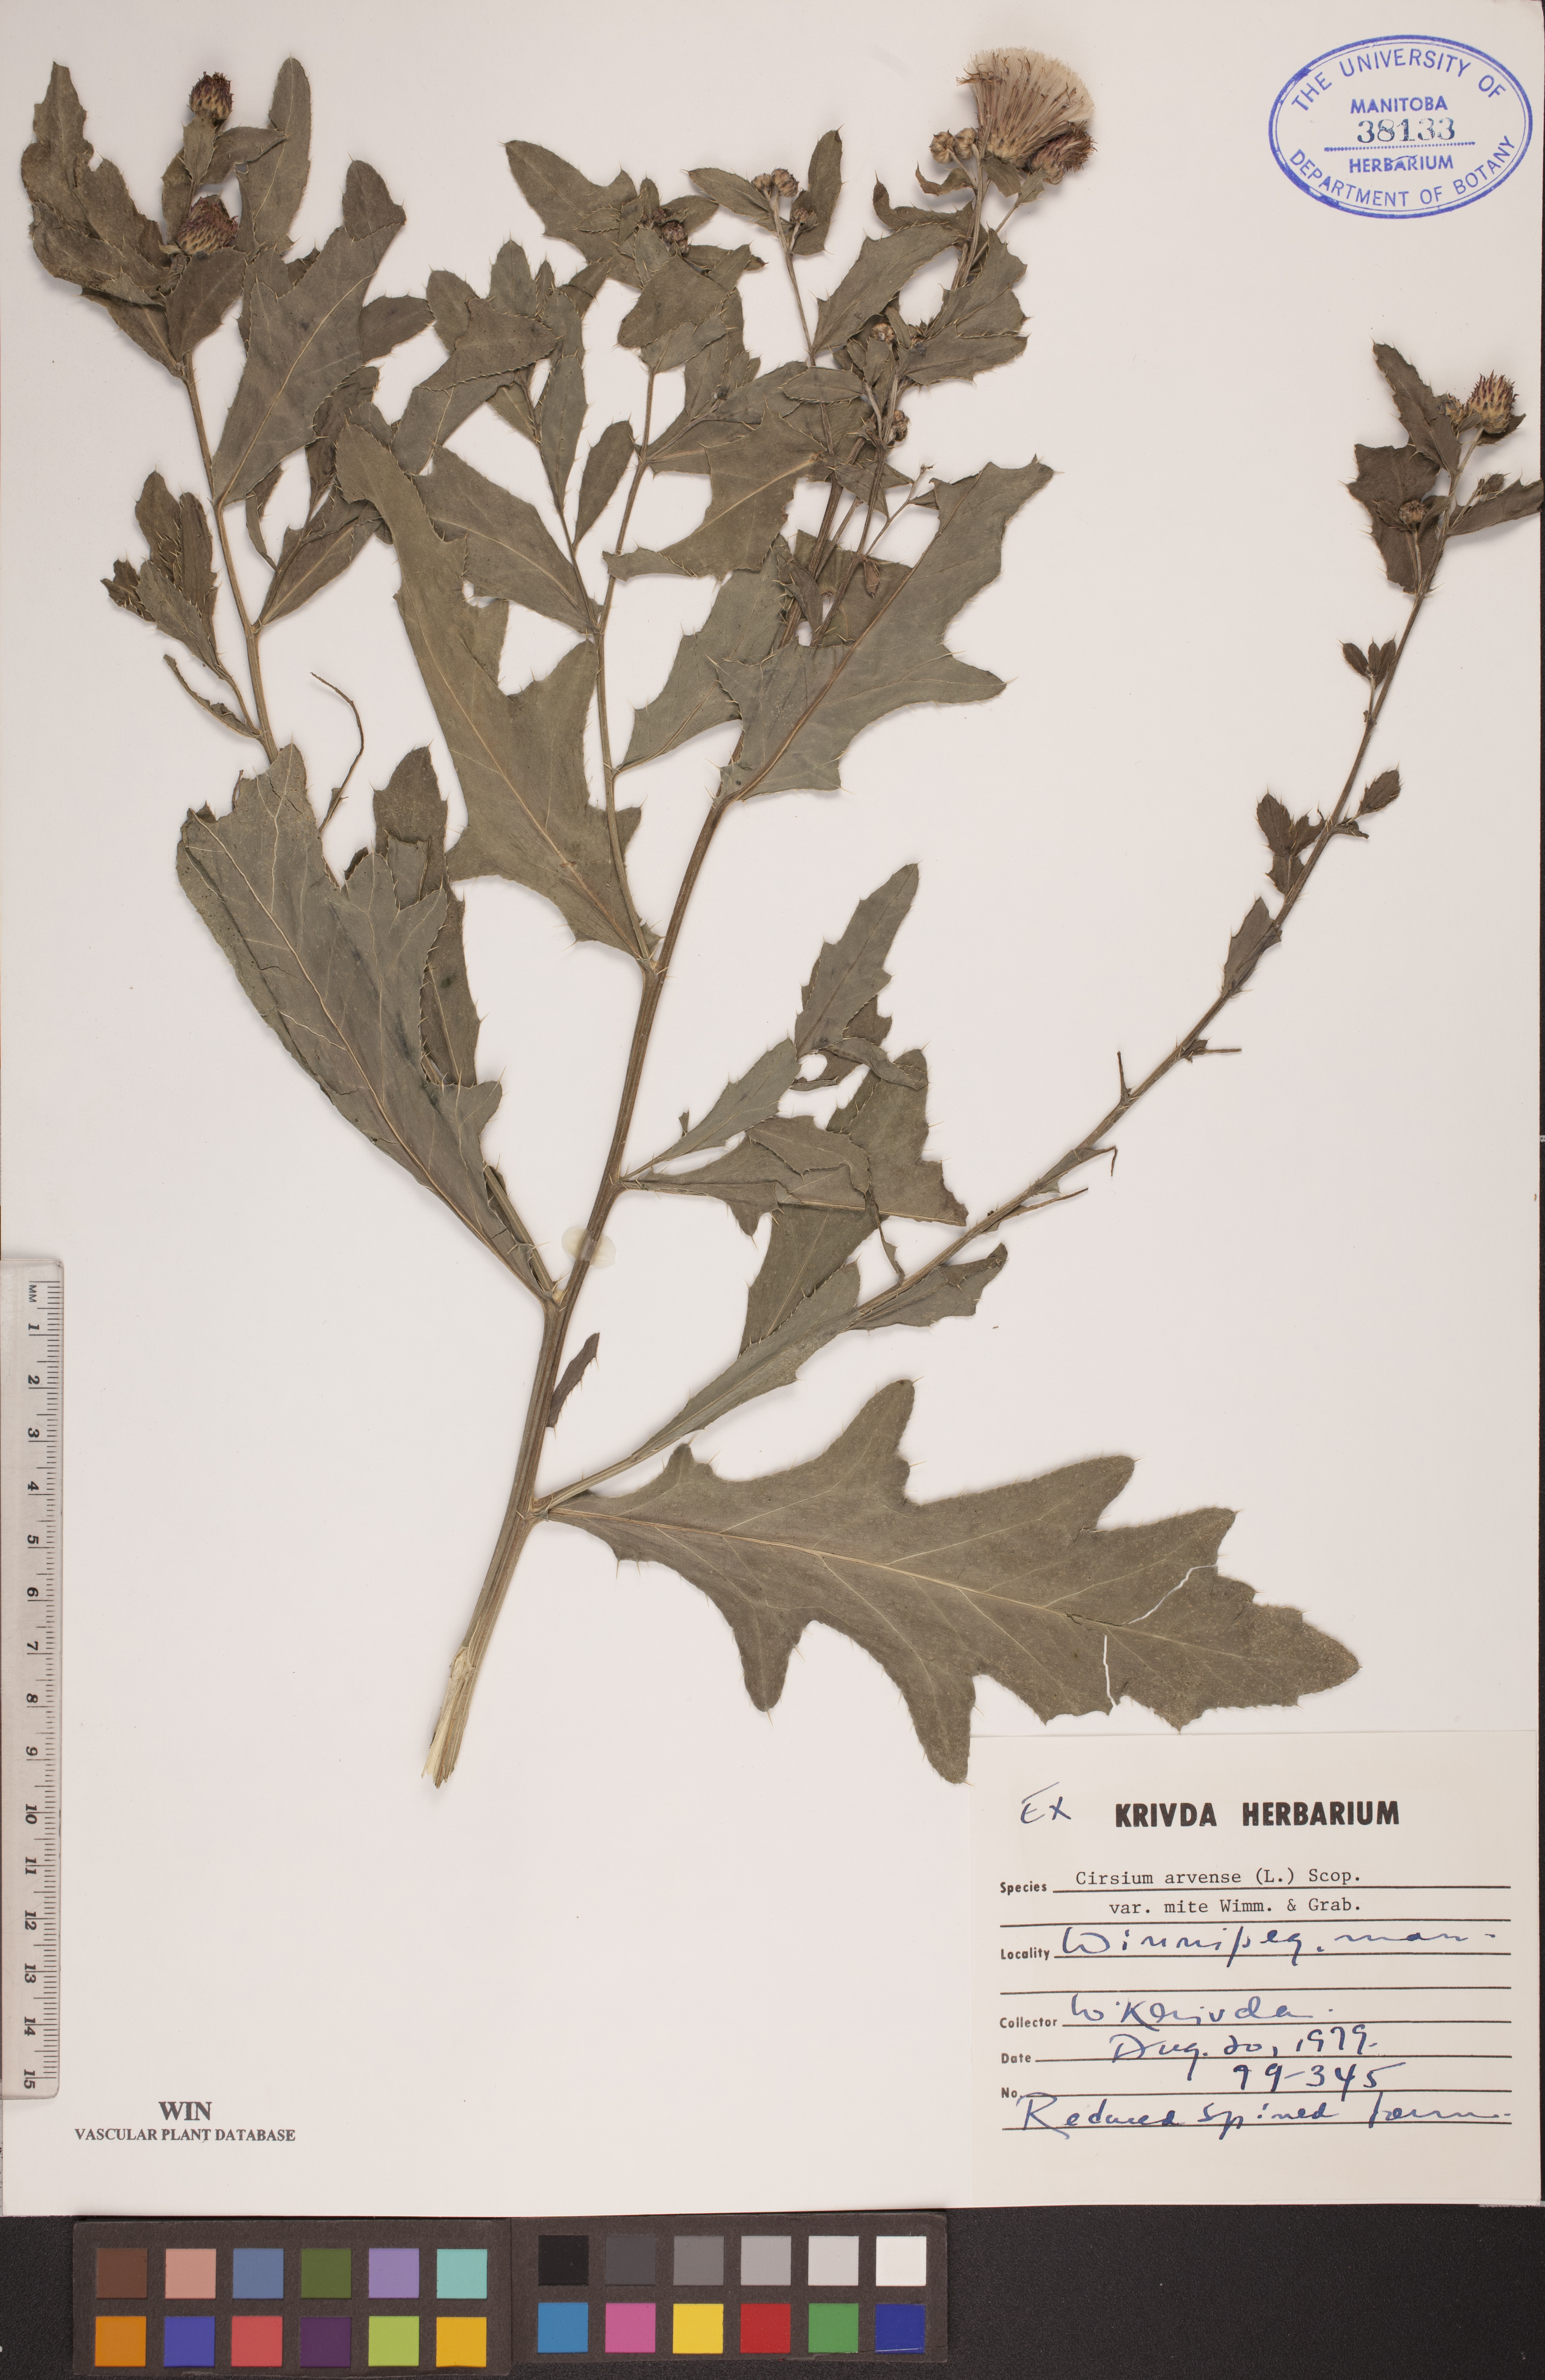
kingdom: Plantae
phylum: Tracheophyta
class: Magnoliopsida
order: Asterales
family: Asteraceae
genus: Cirsium
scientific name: Cirsium arvense
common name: Creeping thistle
